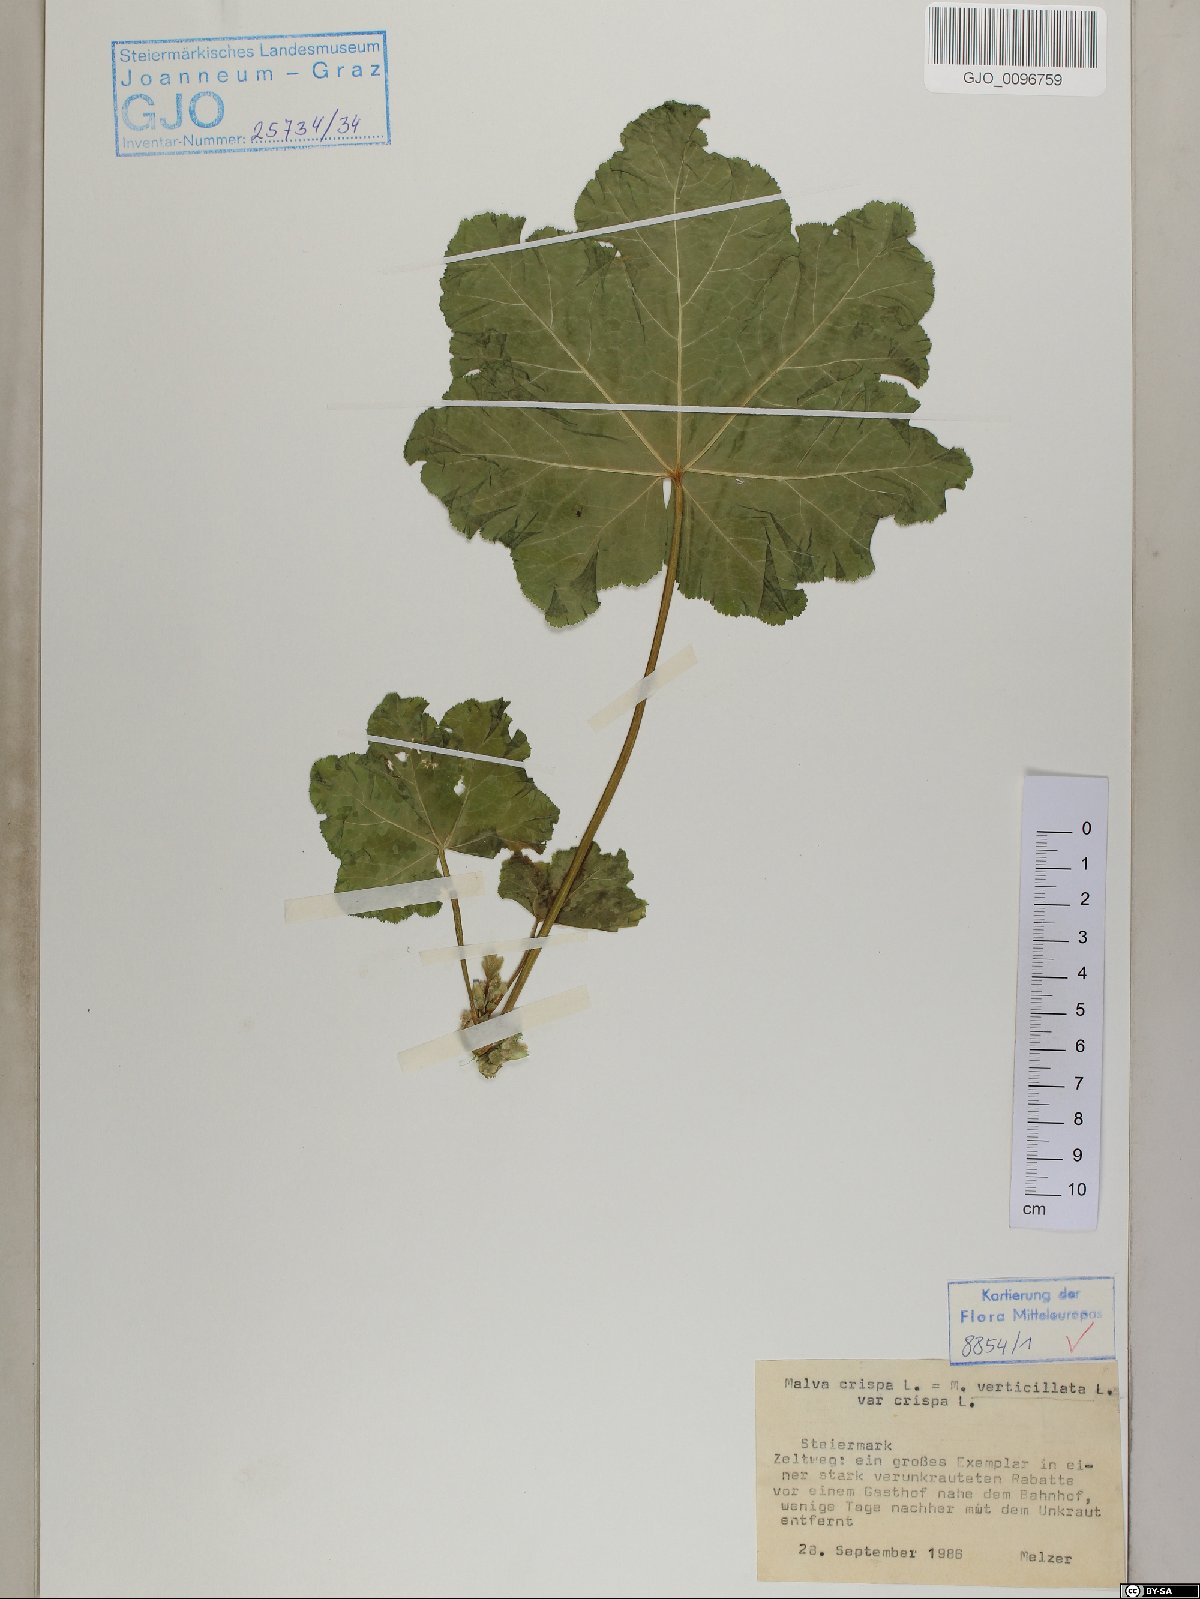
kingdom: Plantae
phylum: Tracheophyta
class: Magnoliopsida
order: Malvales
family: Malvaceae
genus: Malva
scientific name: Malva verticillata
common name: Chinese mallow
